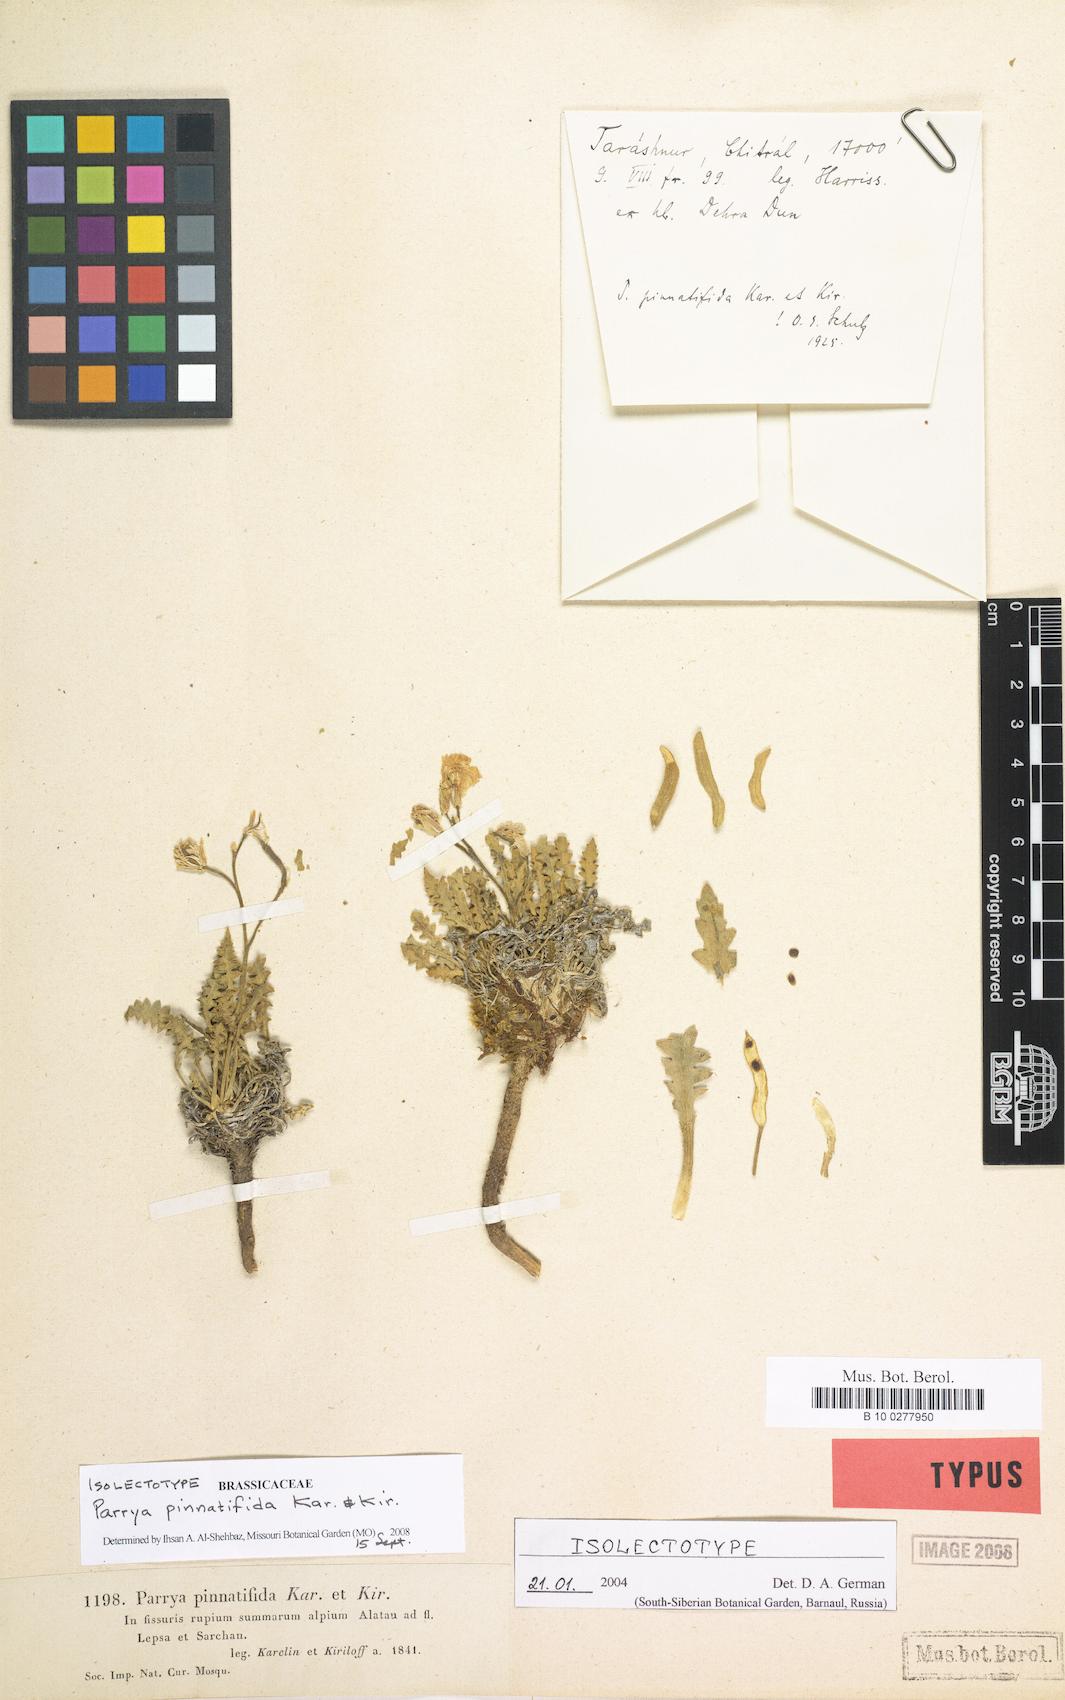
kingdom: Plantae
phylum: Tracheophyta
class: Magnoliopsida
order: Brassicales
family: Brassicaceae
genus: Parrya
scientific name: Parrya pinnatifida
